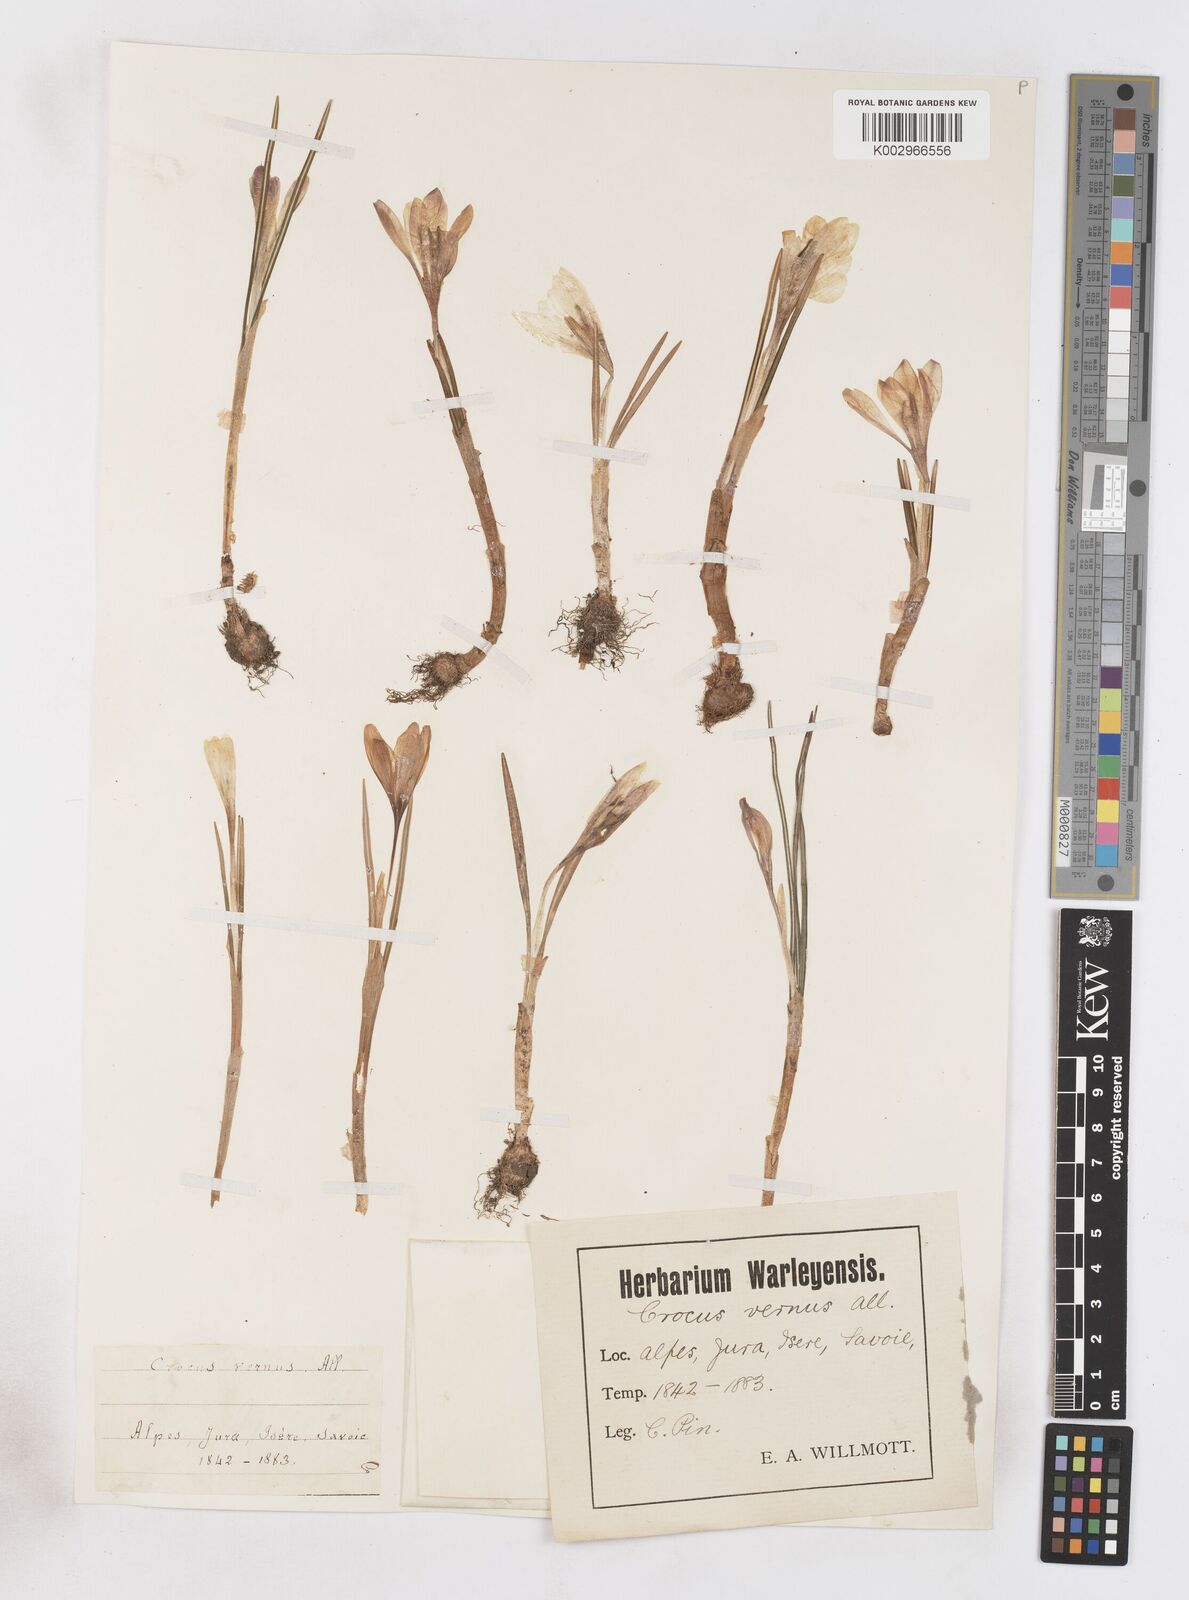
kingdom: Plantae
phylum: Tracheophyta
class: Liliopsida
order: Asparagales
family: Iridaceae
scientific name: Iridaceae
